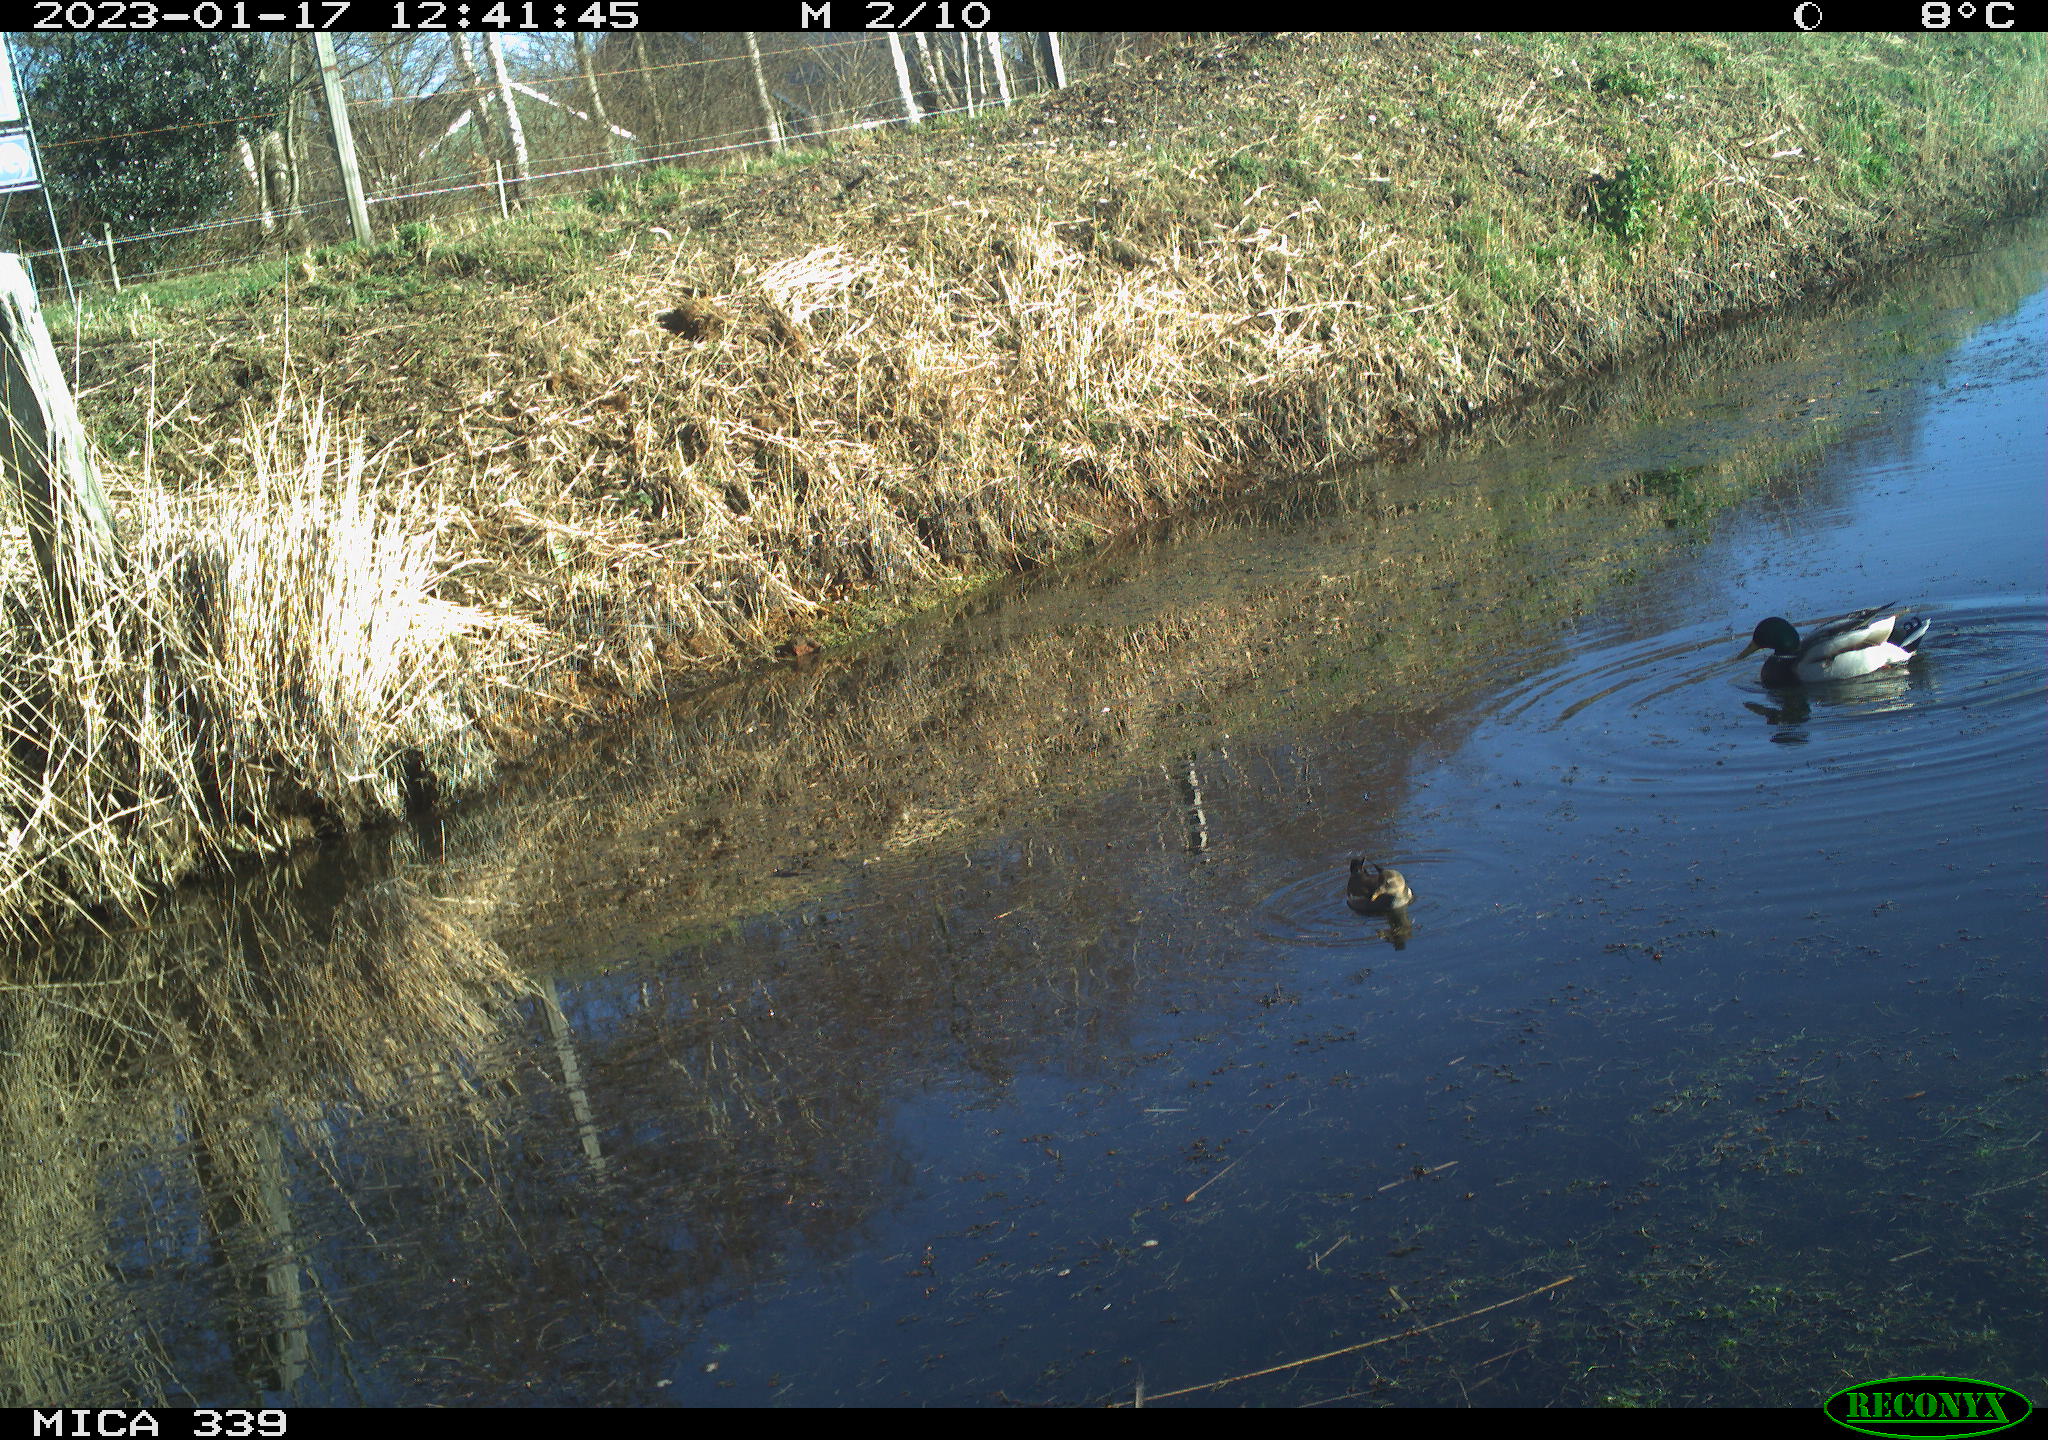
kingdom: Animalia
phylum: Chordata
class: Aves
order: Gruiformes
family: Rallidae
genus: Gallinula
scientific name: Gallinula chloropus
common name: Common moorhen
